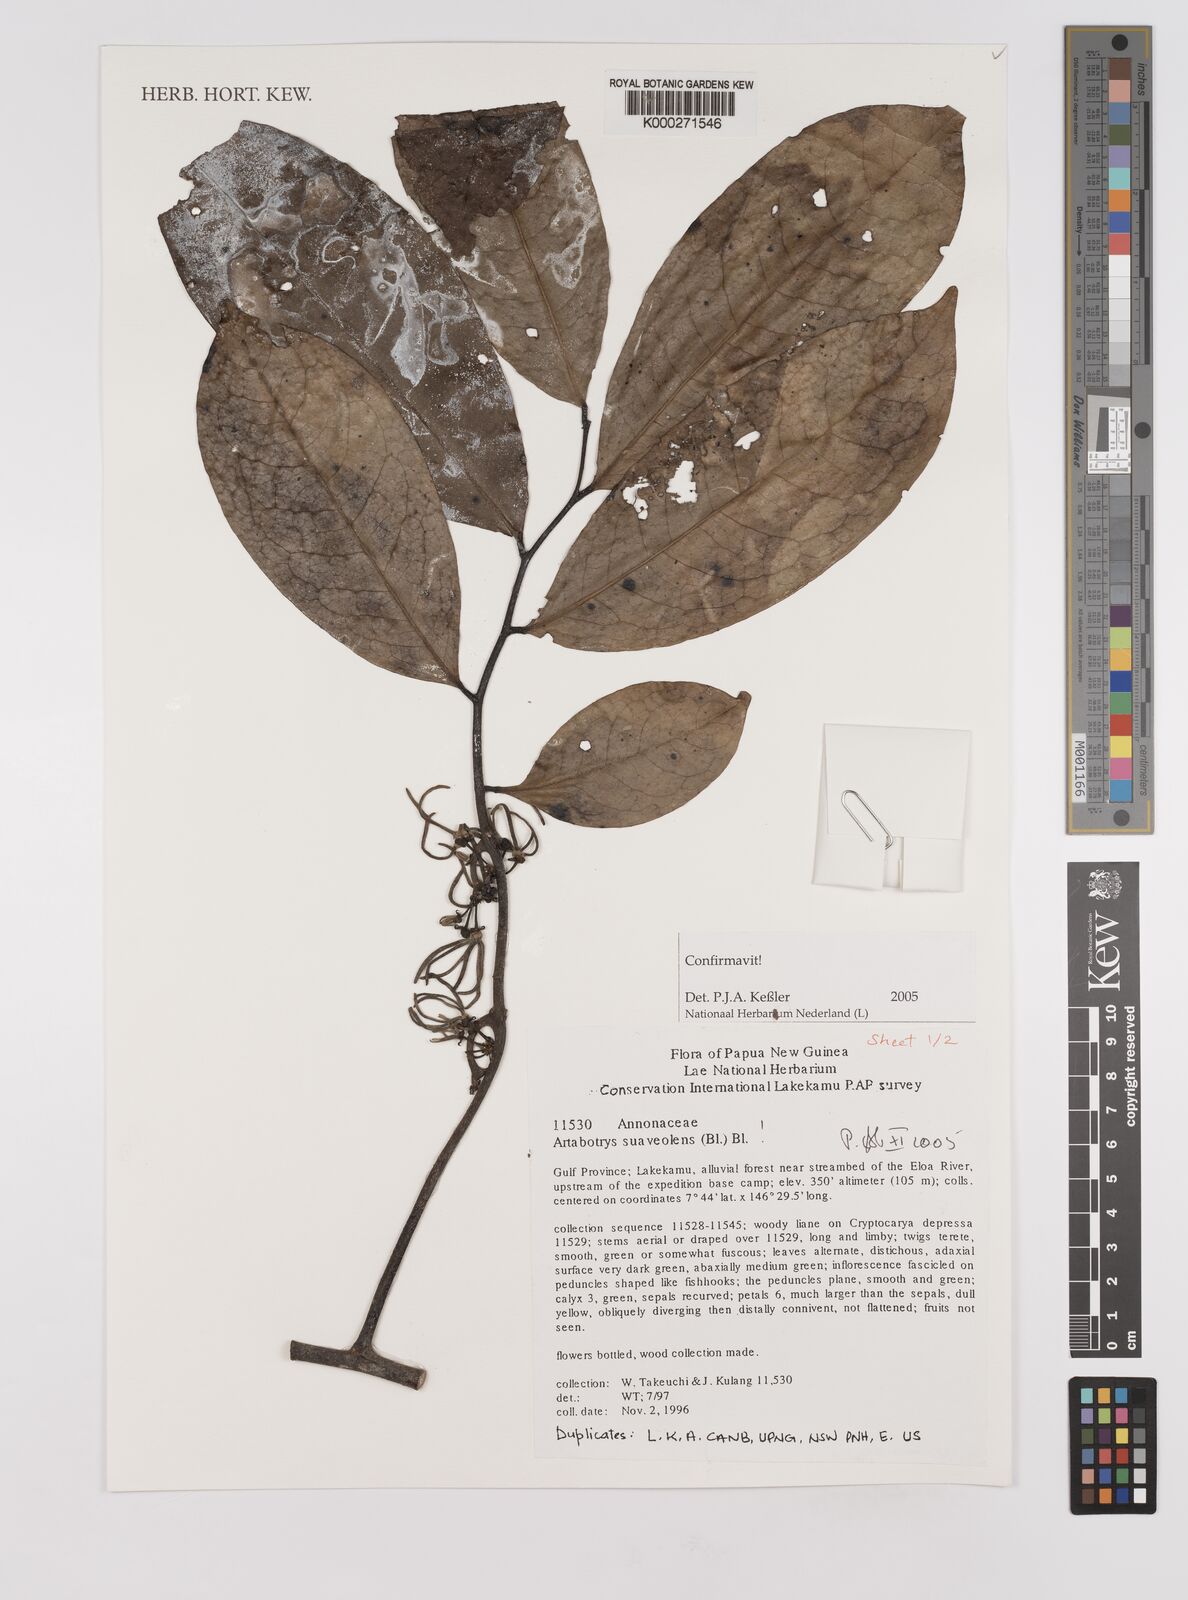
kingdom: Plantae
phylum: Tracheophyta
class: Magnoliopsida
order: Magnoliales
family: Annonaceae
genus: Artabotrys
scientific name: Artabotrys suaveolens
